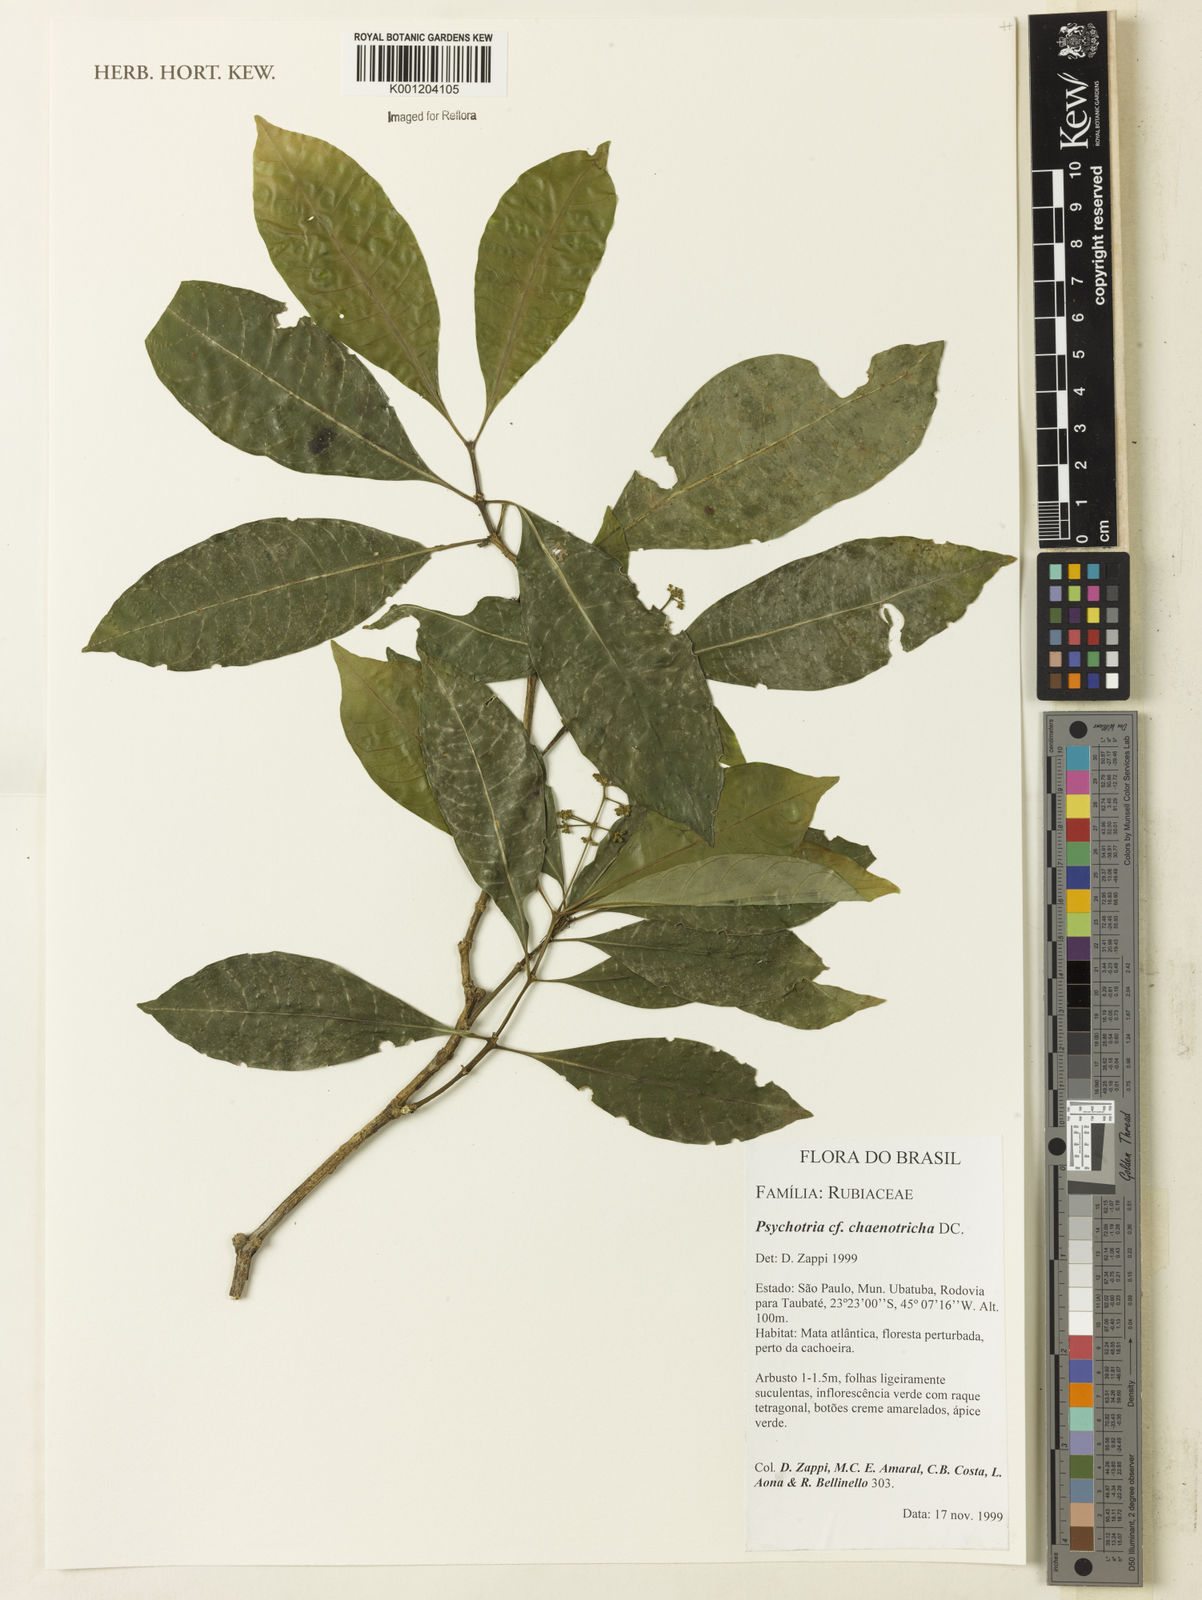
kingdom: Plantae
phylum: Tracheophyta
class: Magnoliopsida
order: Gentianales
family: Rubiaceae
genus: Eumachia
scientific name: Eumachia chaenotricha
